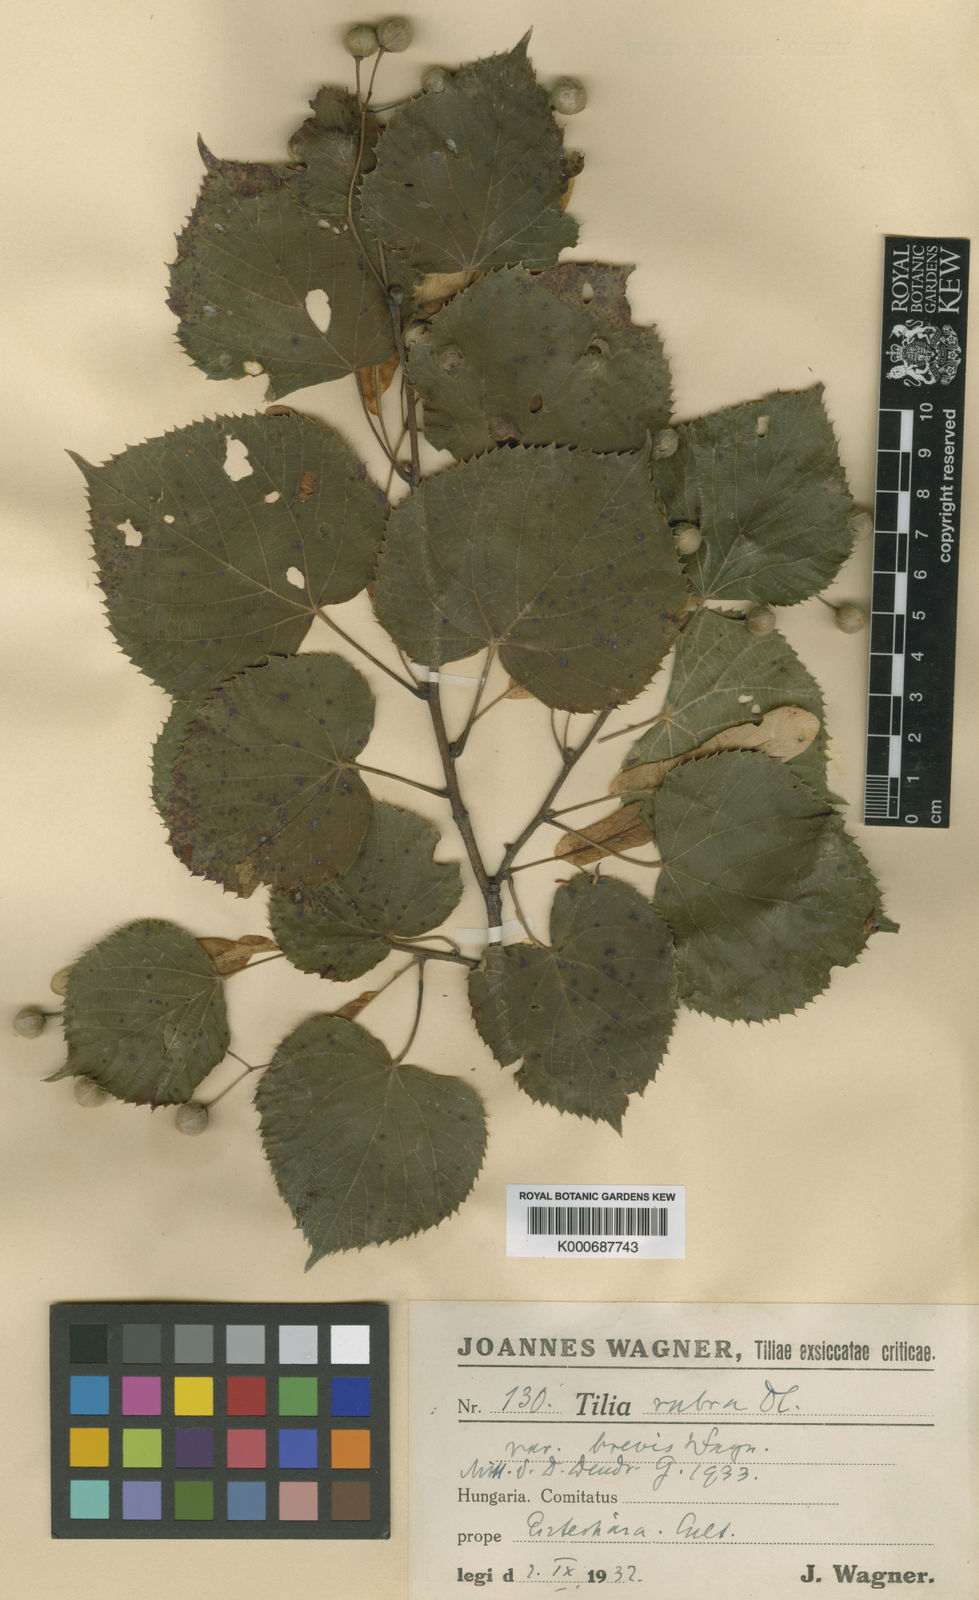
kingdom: Plantae
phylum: Tracheophyta
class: Magnoliopsida
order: Malvales
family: Malvaceae
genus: Tilia
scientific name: Tilia platyphyllos
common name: Large-leaved lime
